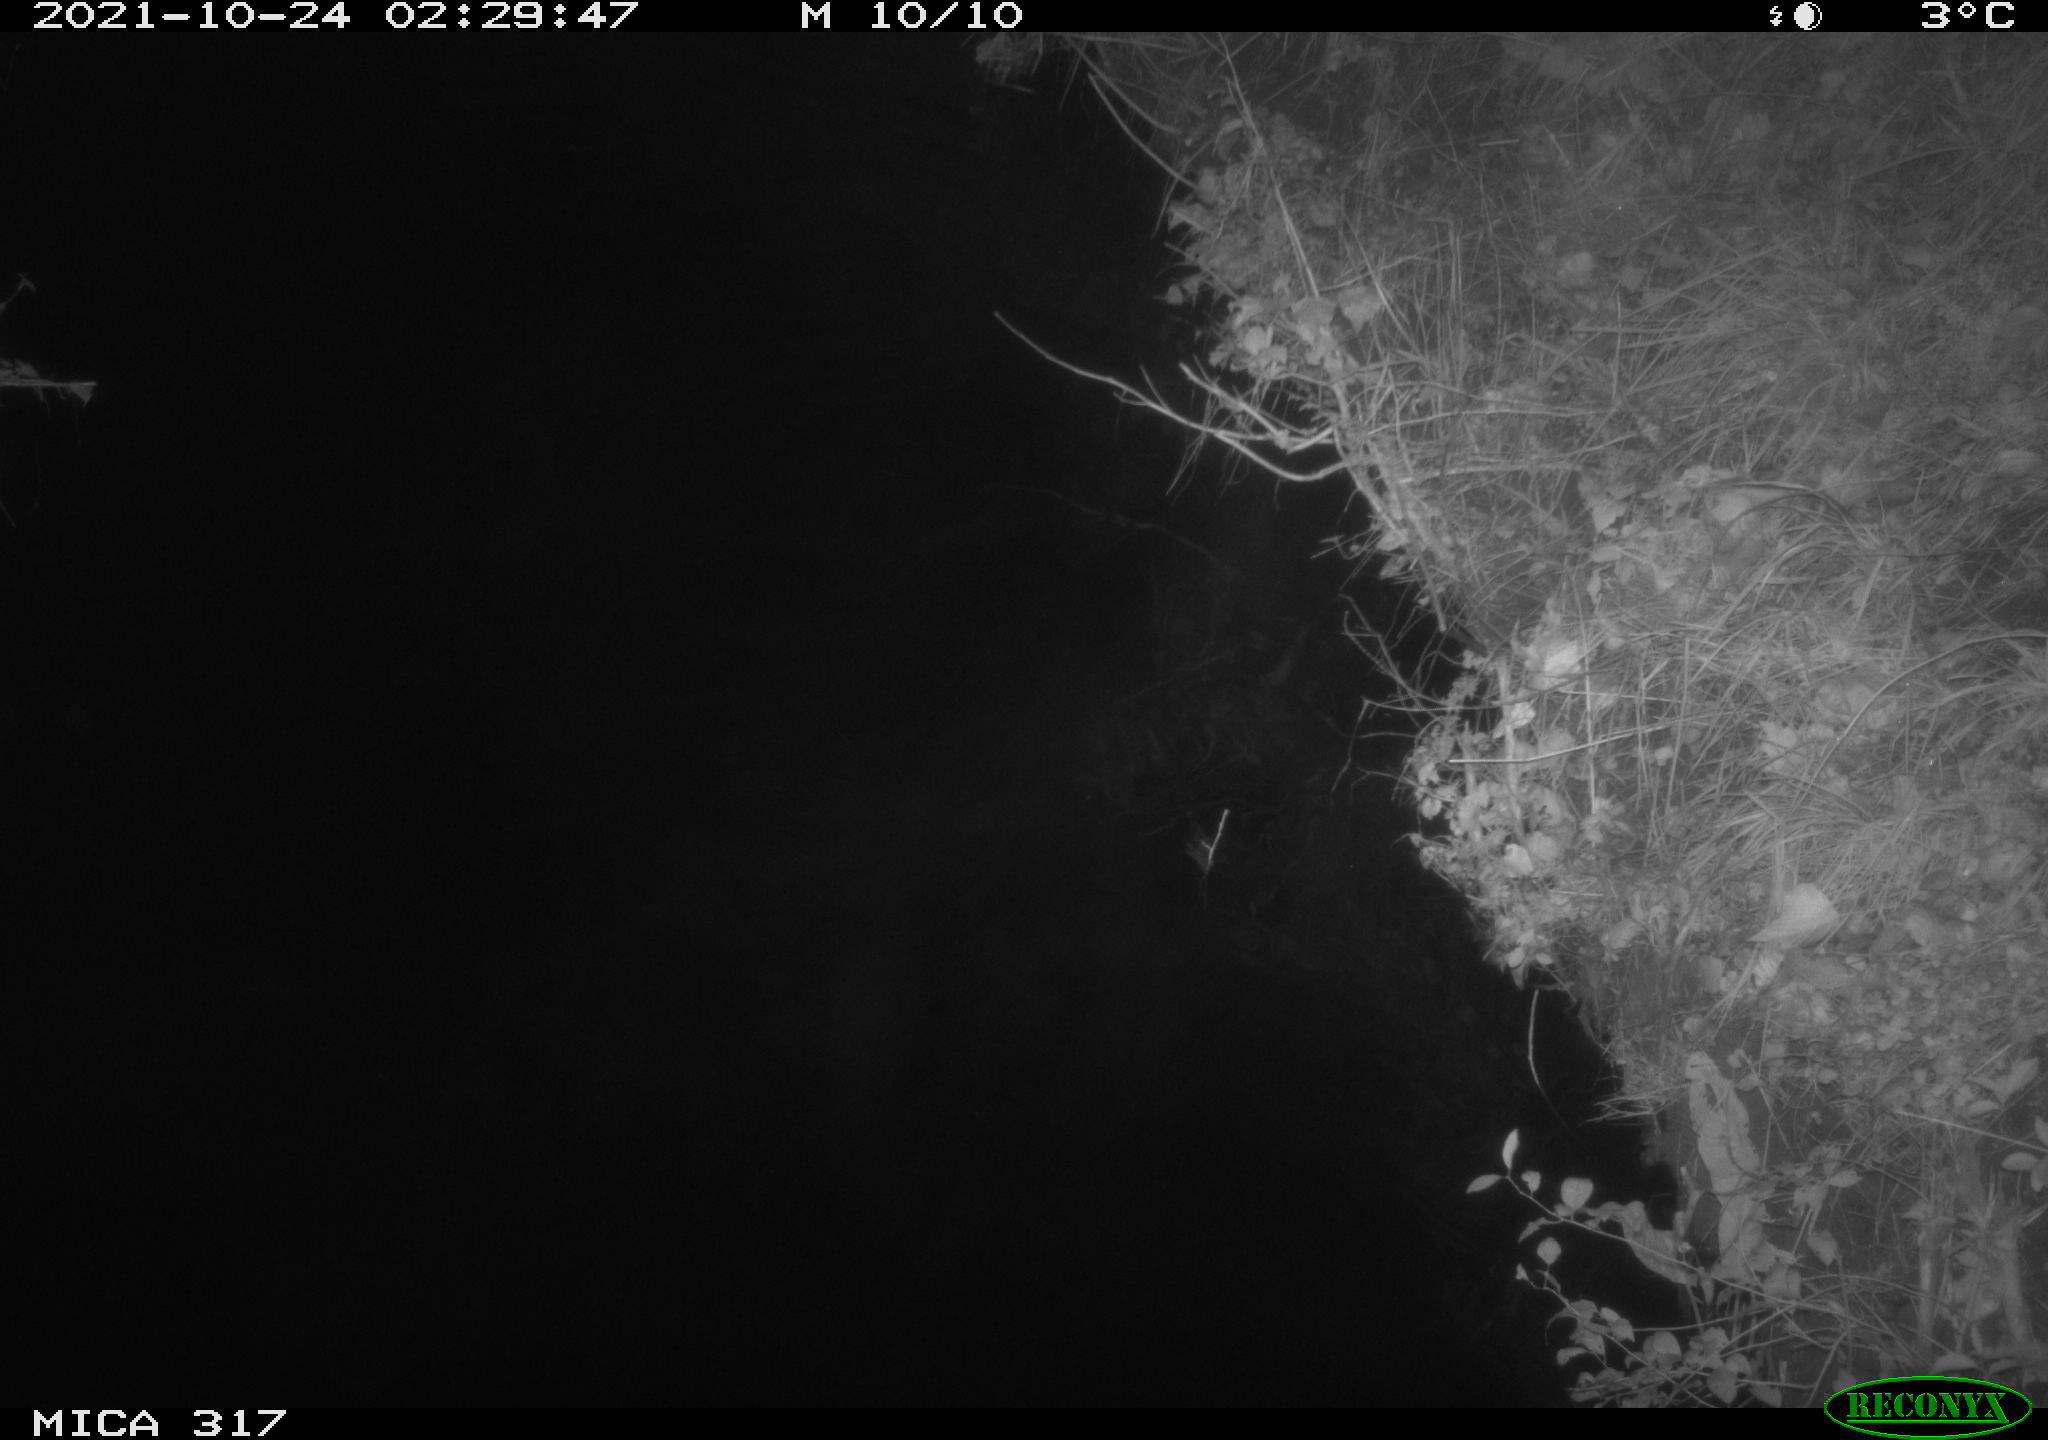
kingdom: Animalia
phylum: Chordata
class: Aves
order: Anseriformes
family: Anatidae
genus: Anas
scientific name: Anas platyrhynchos
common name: Mallard
